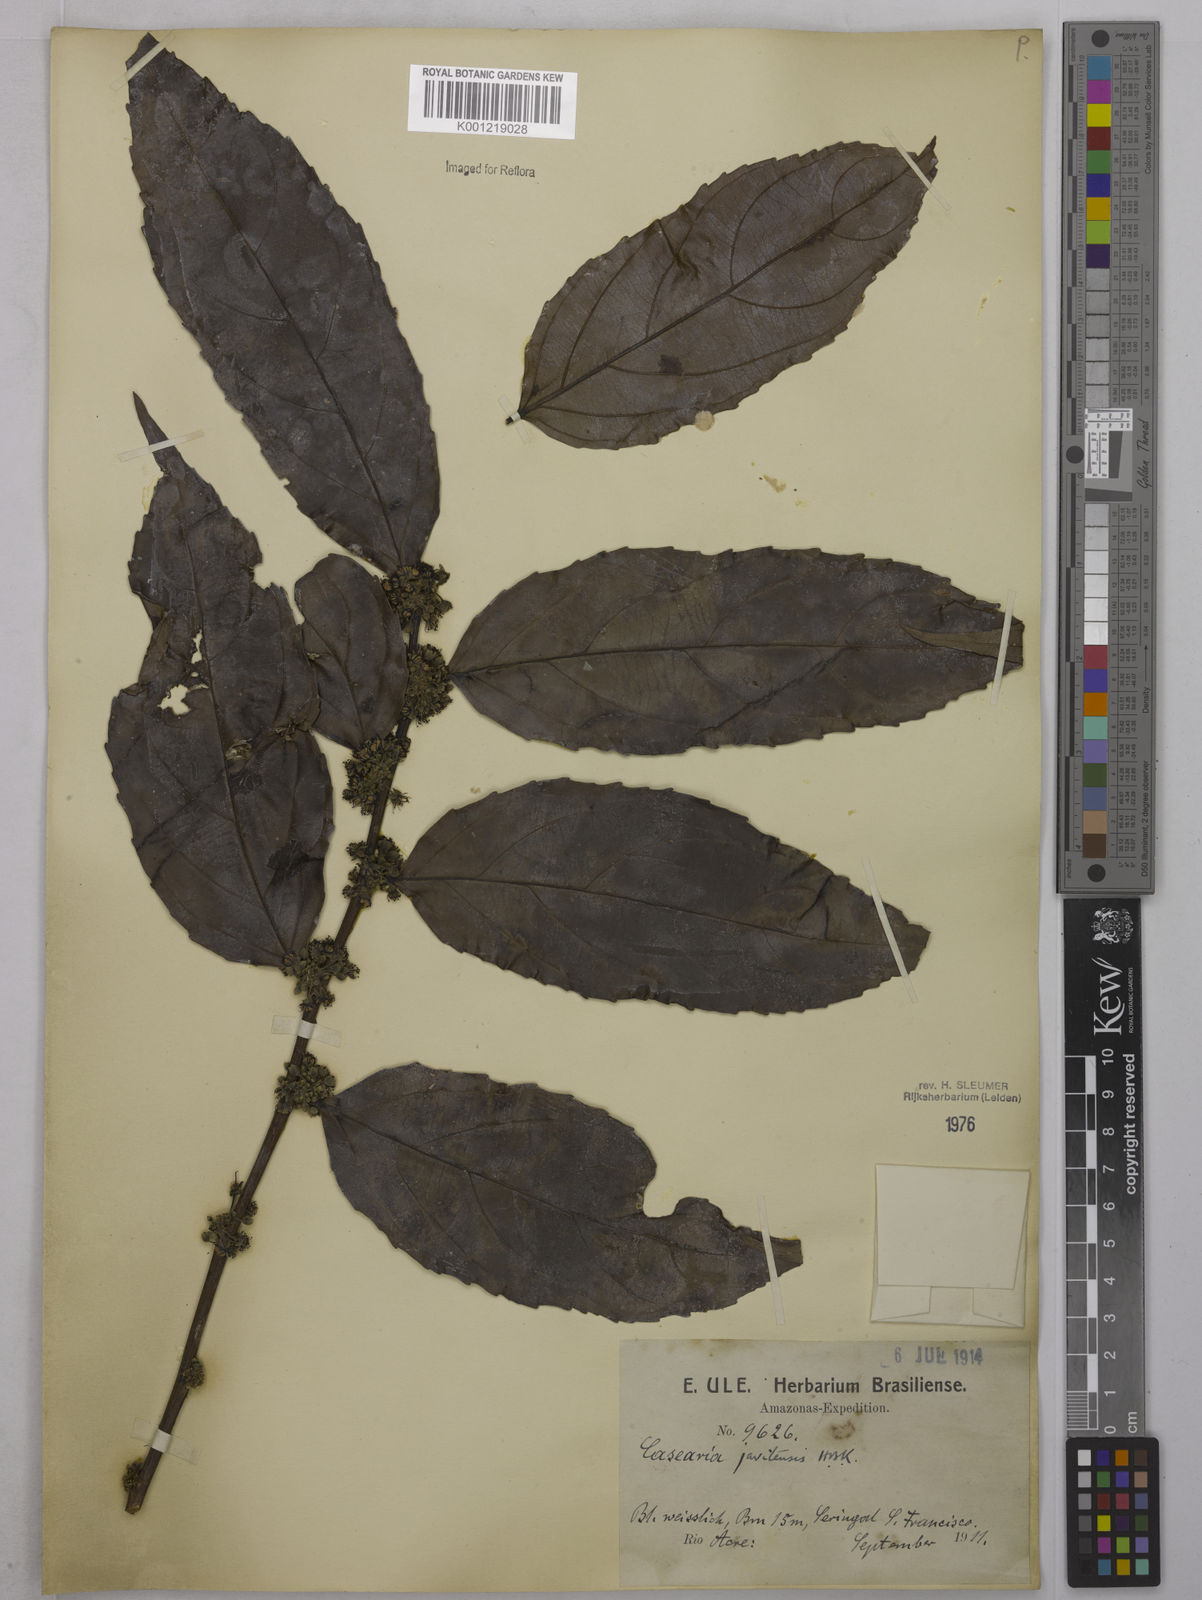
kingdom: Plantae
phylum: Tracheophyta
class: Magnoliopsida
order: Malpighiales
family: Salicaceae
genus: Piparea
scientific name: Piparea multiflora
